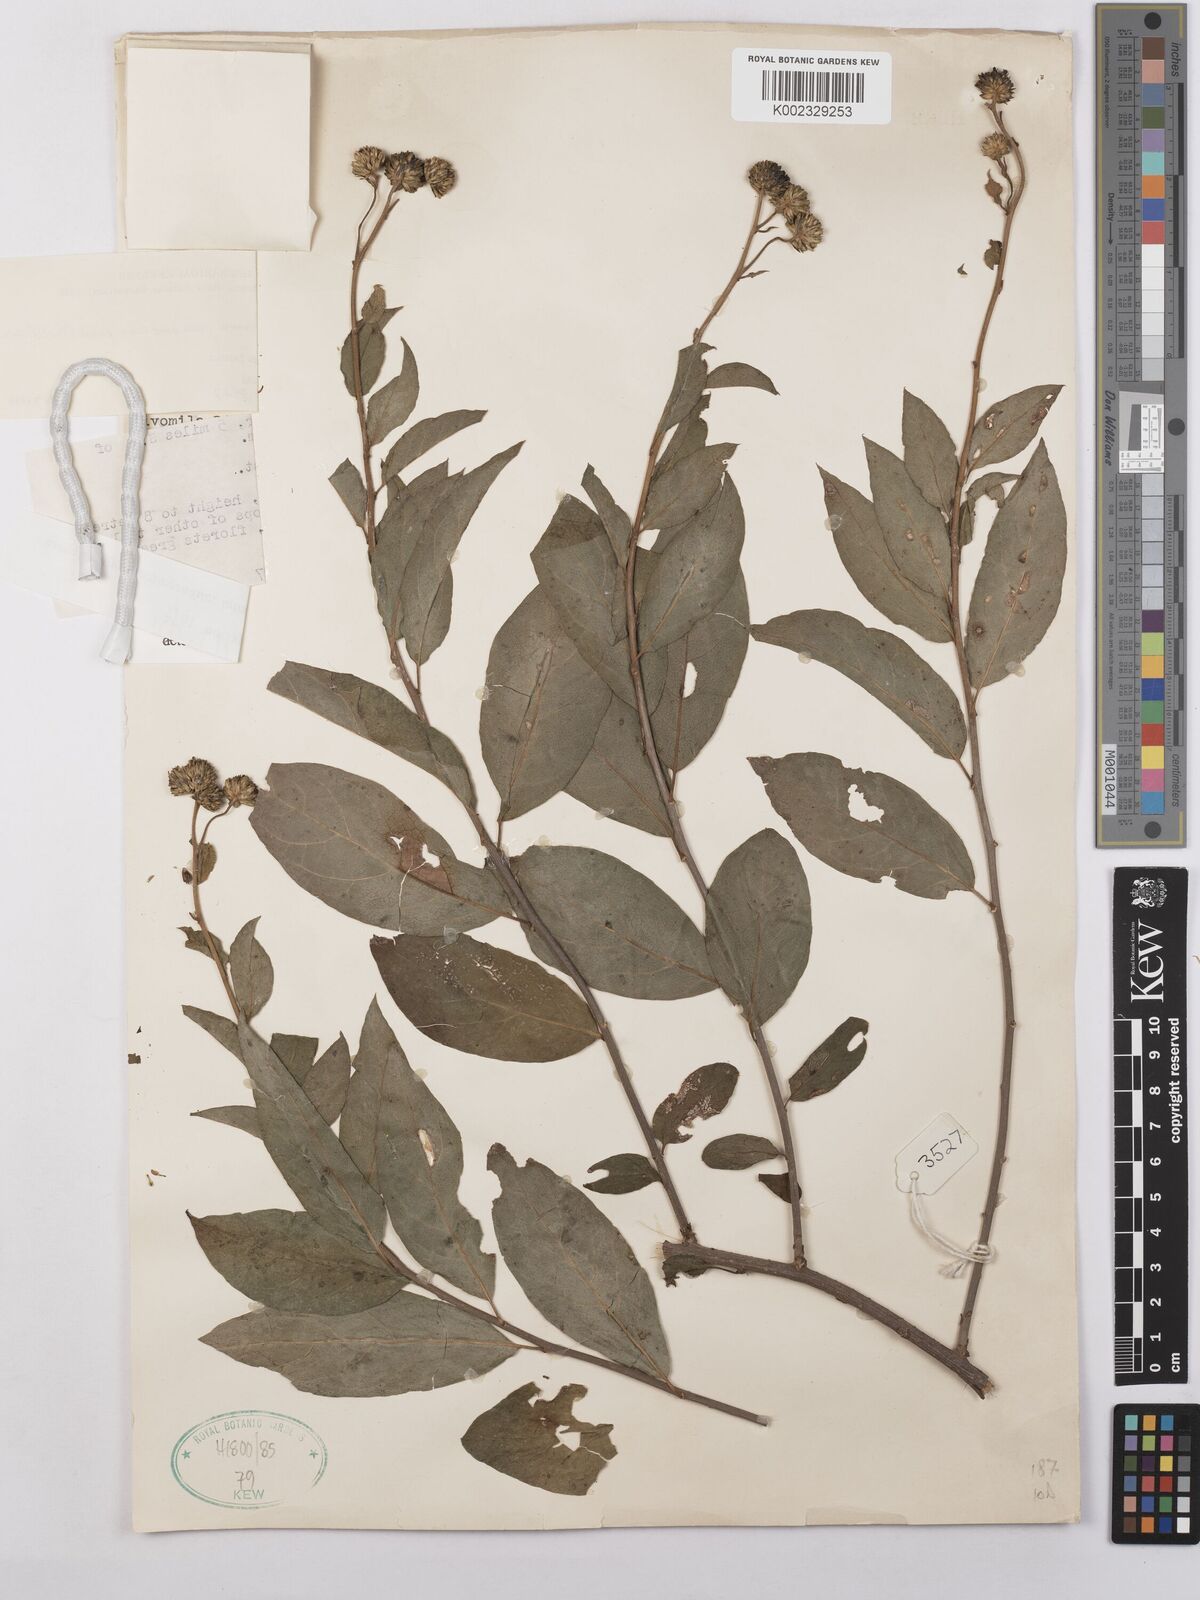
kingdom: Plantae
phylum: Tracheophyta
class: Magnoliopsida
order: Asterales
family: Asteraceae
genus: Blepharispermum
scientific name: Blepharispermum zanguebaricum
